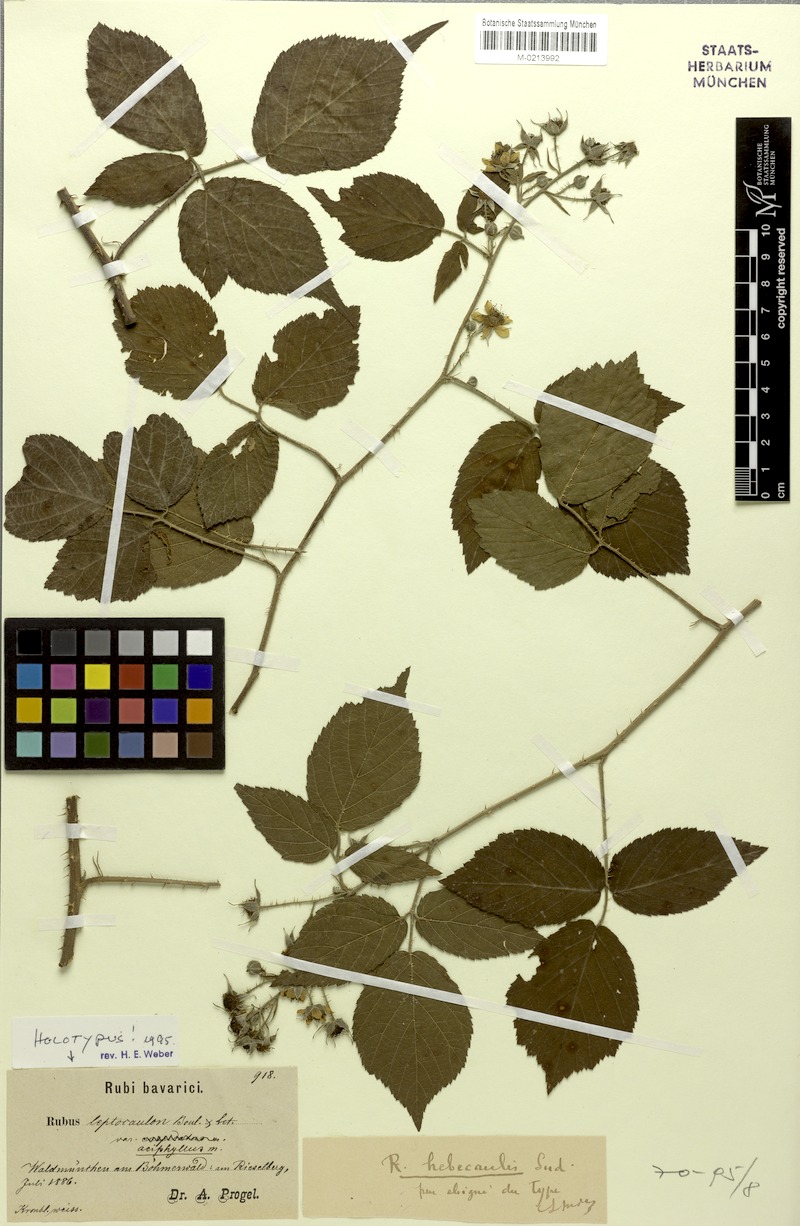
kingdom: Plantae
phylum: Tracheophyta
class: Magnoliopsida
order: Rosales
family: Rosaceae
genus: Rubus
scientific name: Rubus leptocaulon
